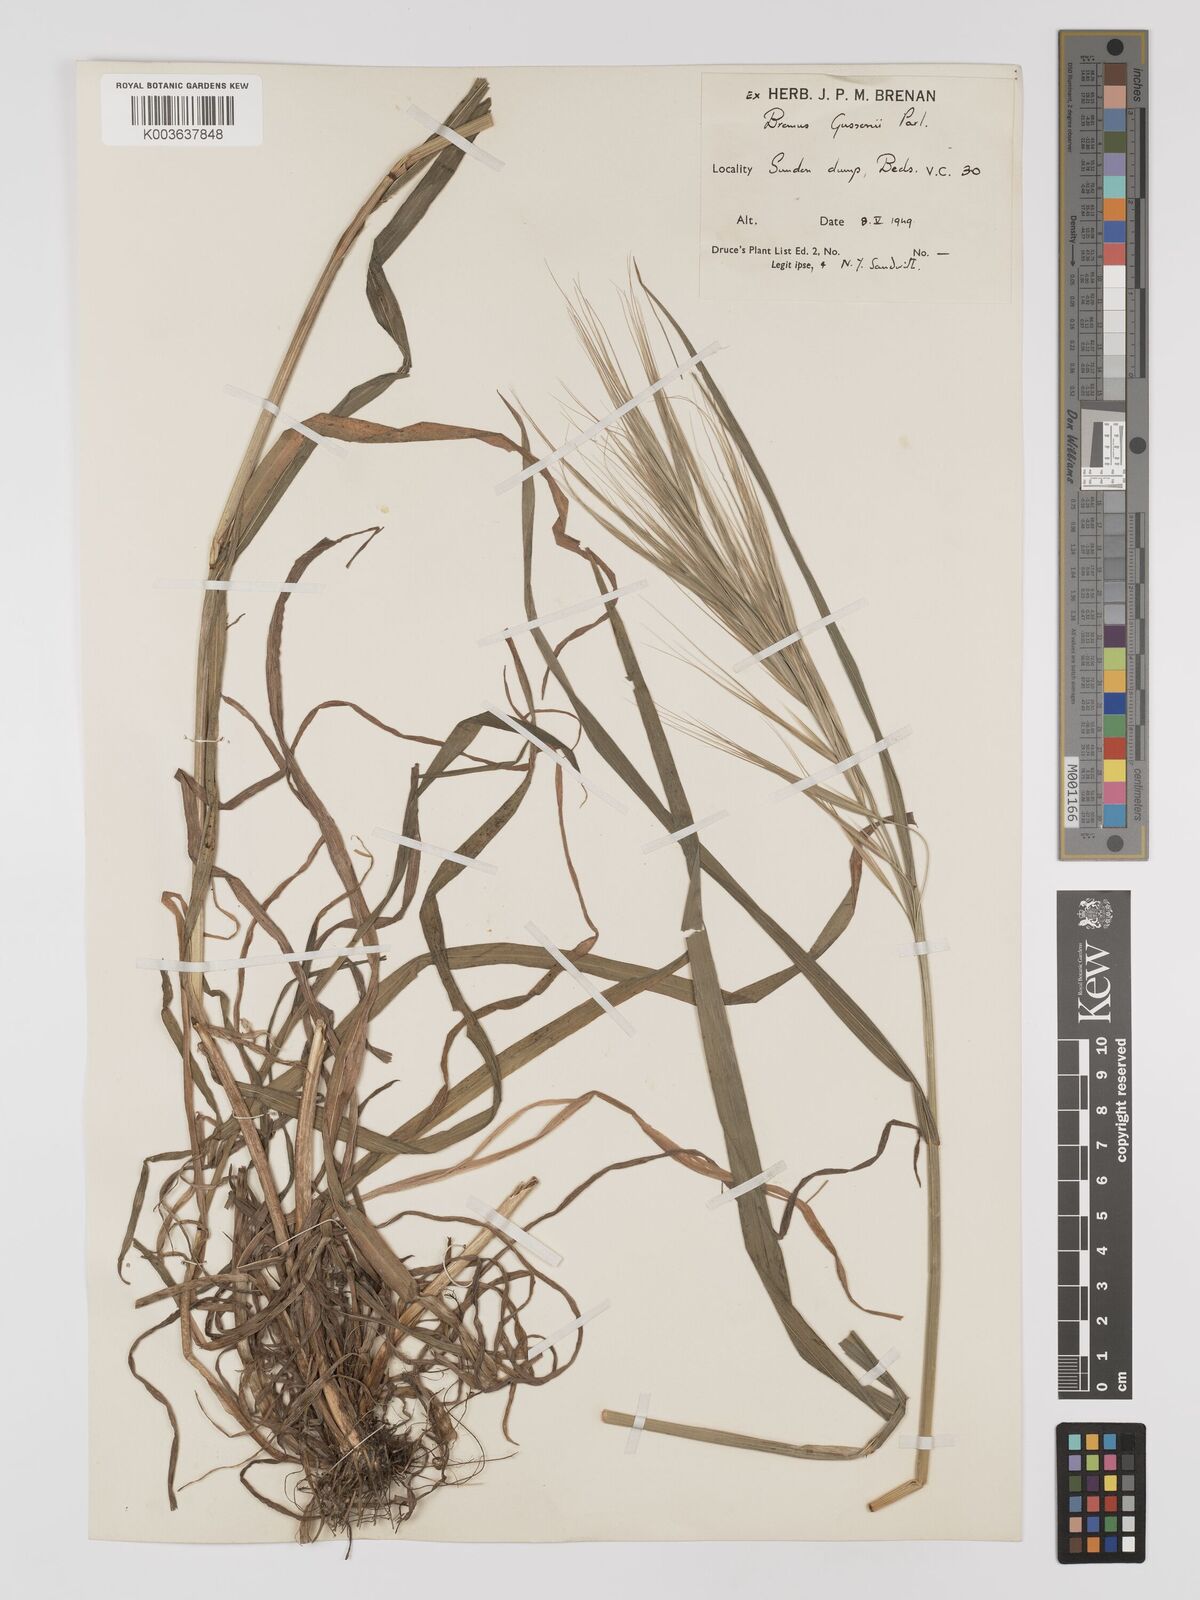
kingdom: Plantae
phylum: Tracheophyta
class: Liliopsida
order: Poales
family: Poaceae
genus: Bromus
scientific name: Bromus
